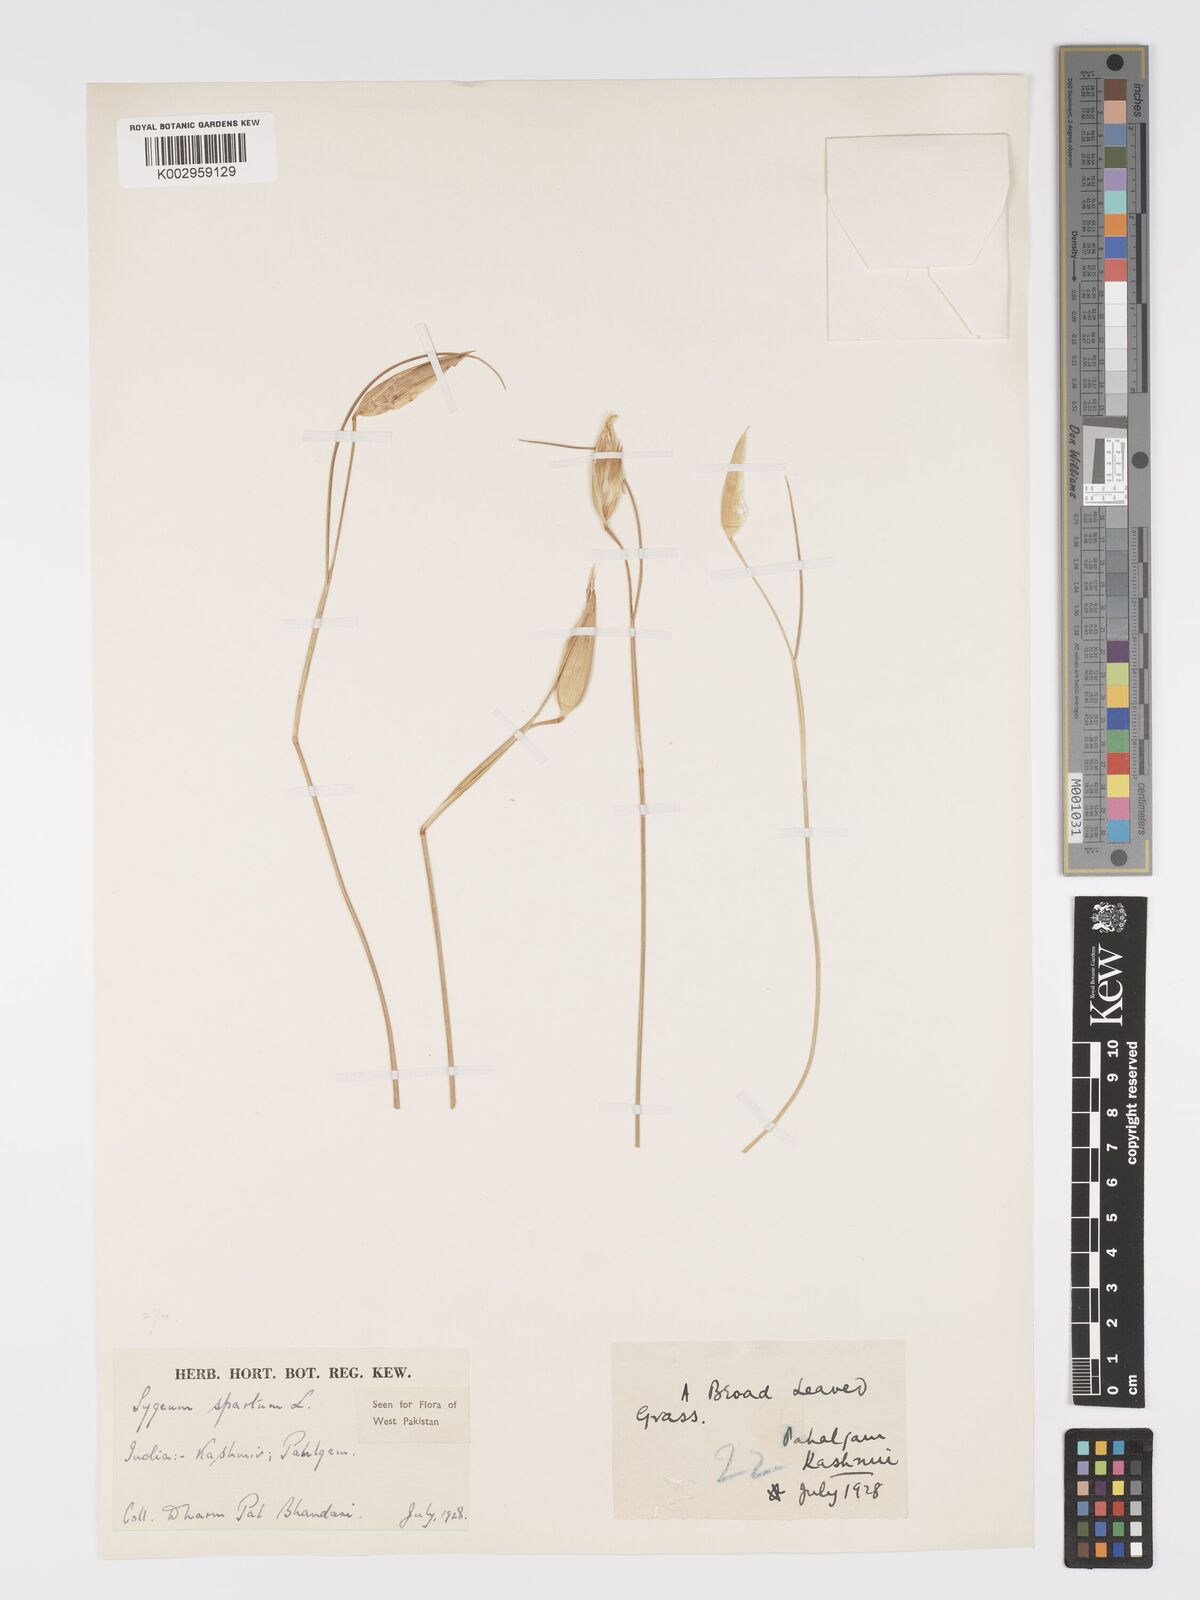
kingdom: Plantae
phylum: Tracheophyta
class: Liliopsida
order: Poales
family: Poaceae
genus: Lygeum
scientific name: Lygeum spartum
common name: Albardine
